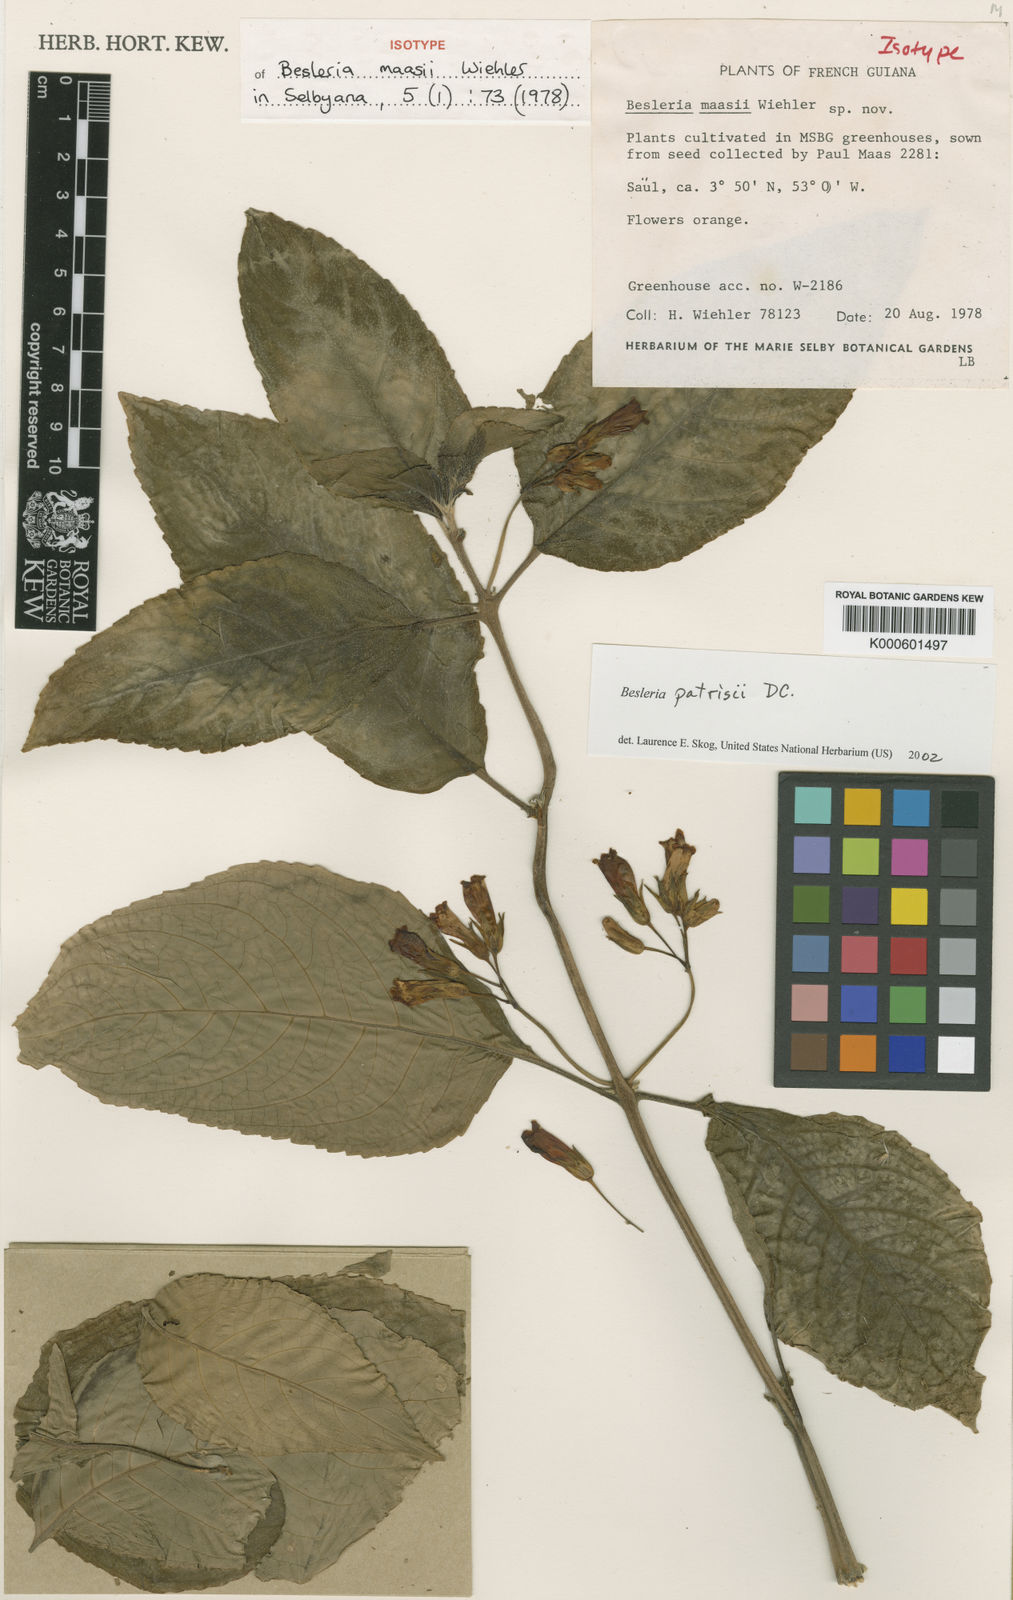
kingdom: Plantae
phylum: Tracheophyta
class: Magnoliopsida
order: Lamiales
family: Gesneriaceae
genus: Besleria
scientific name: Besleria patrisii
